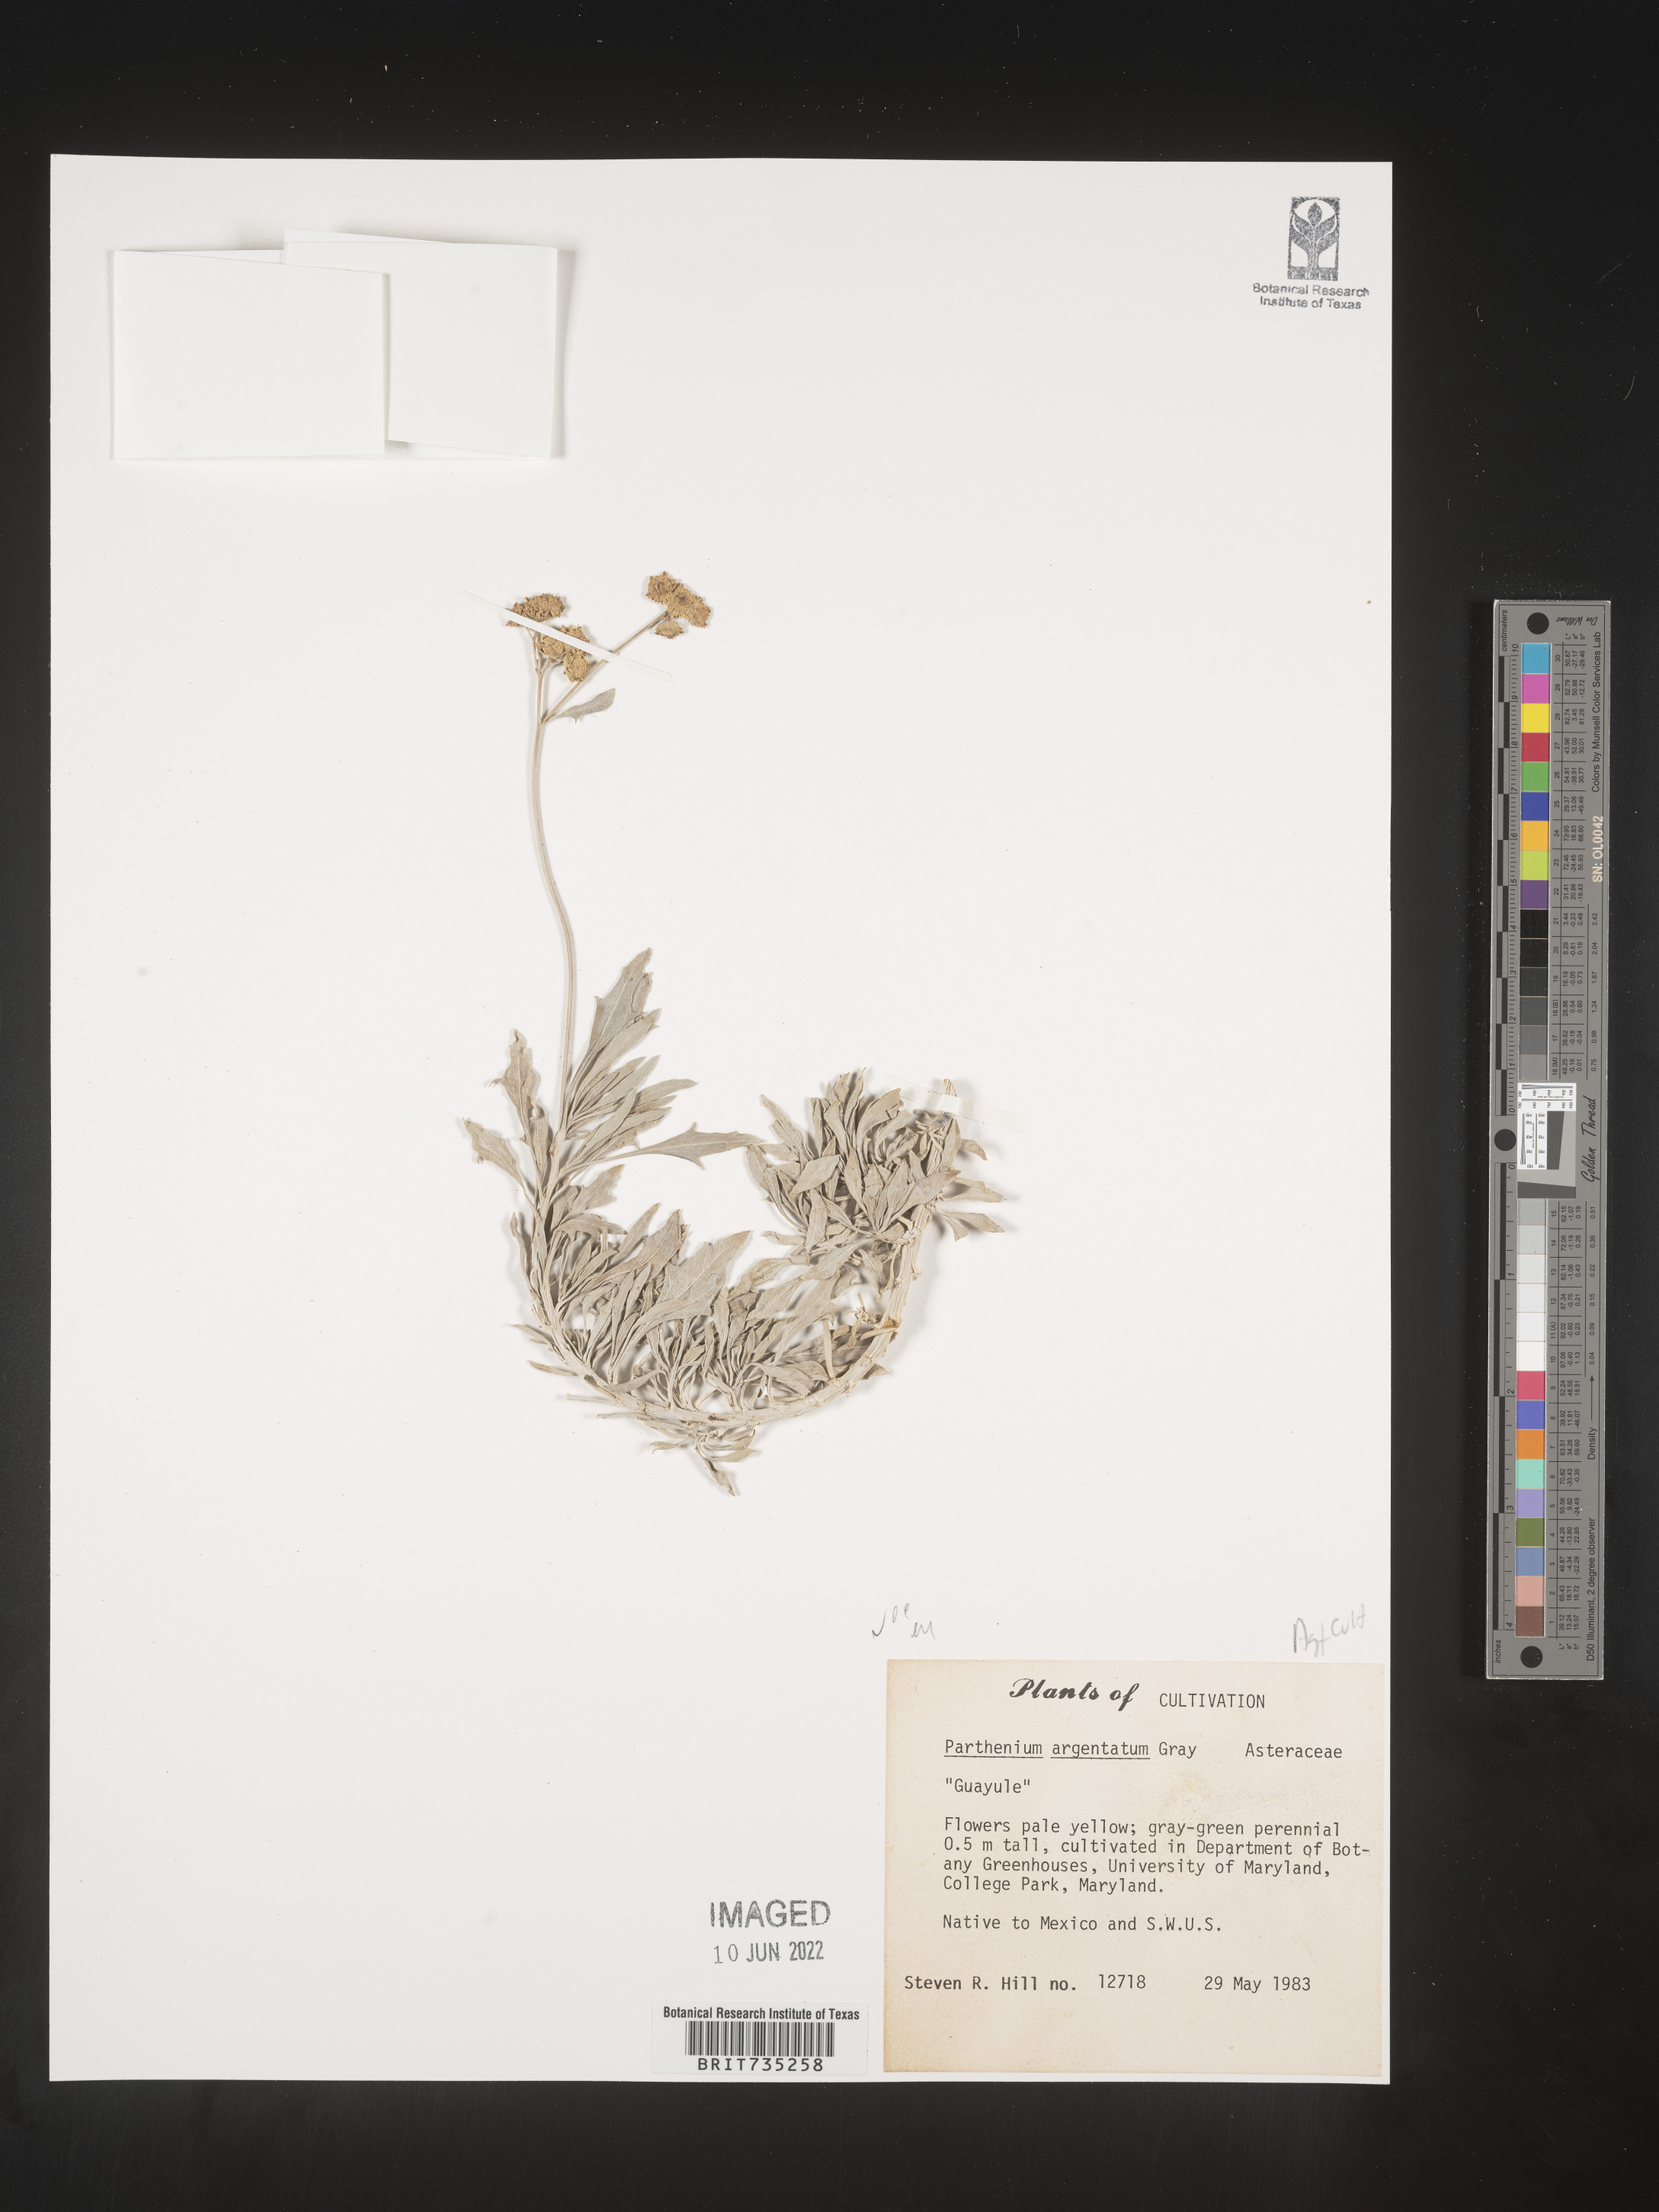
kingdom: Plantae
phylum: Tracheophyta
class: Magnoliopsida
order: Asterales
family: Asteraceae
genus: Parthenium
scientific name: Parthenium
